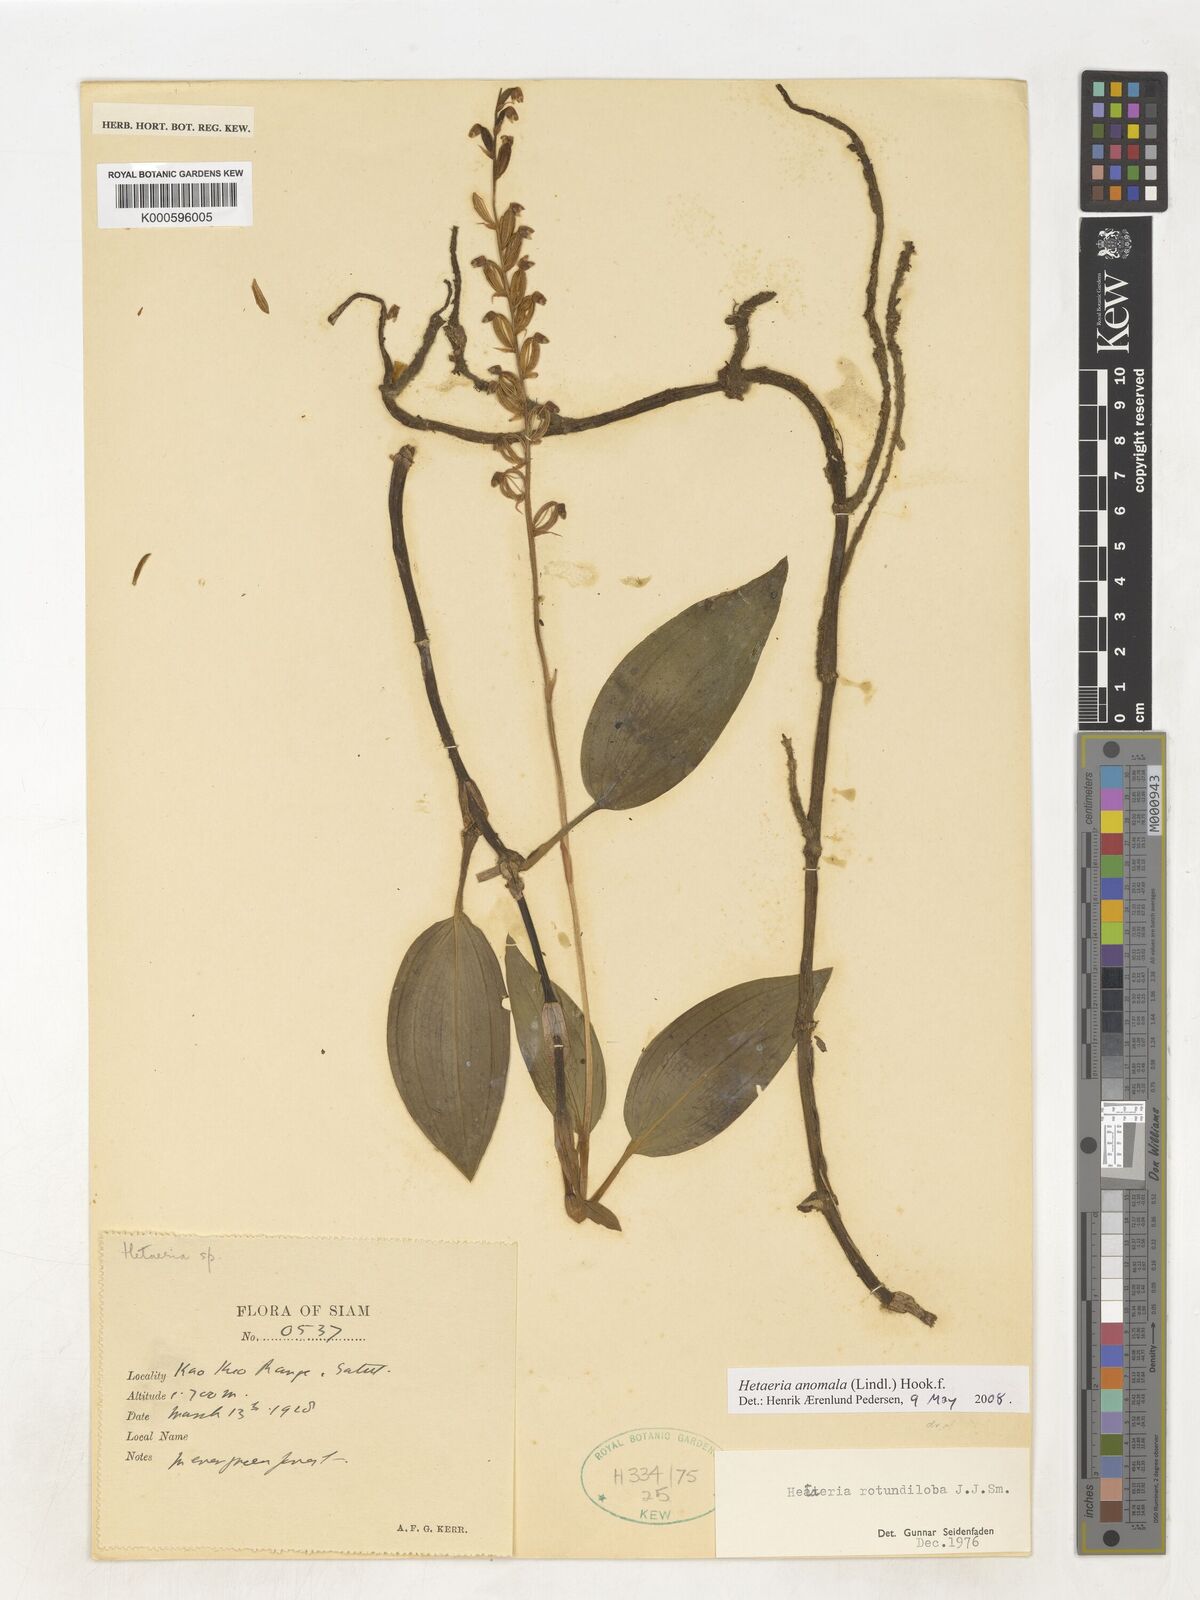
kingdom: Plantae
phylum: Tracheophyta
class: Liliopsida
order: Asparagales
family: Orchidaceae
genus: Hetaeria
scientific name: Hetaeria
